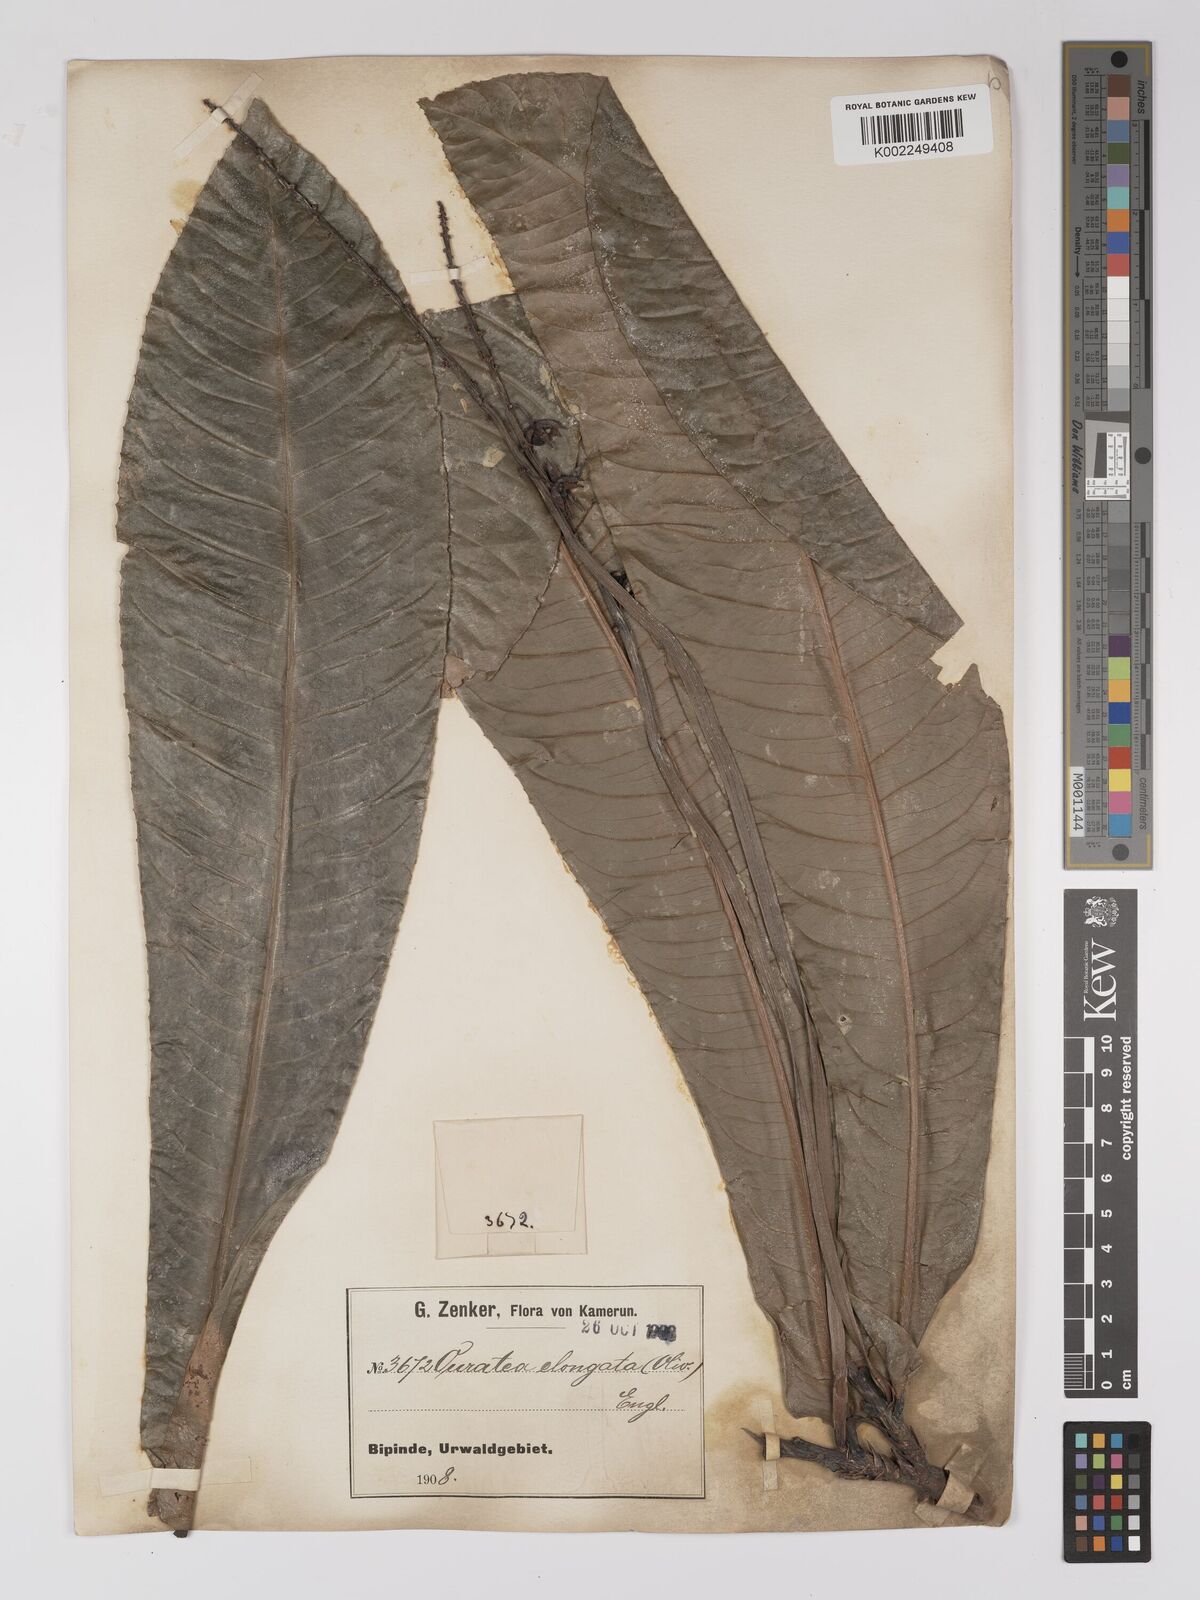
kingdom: Plantae
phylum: Tracheophyta
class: Magnoliopsida
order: Malpighiales
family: Ochnaceae
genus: Gomphia
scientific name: Gomphia elongata
